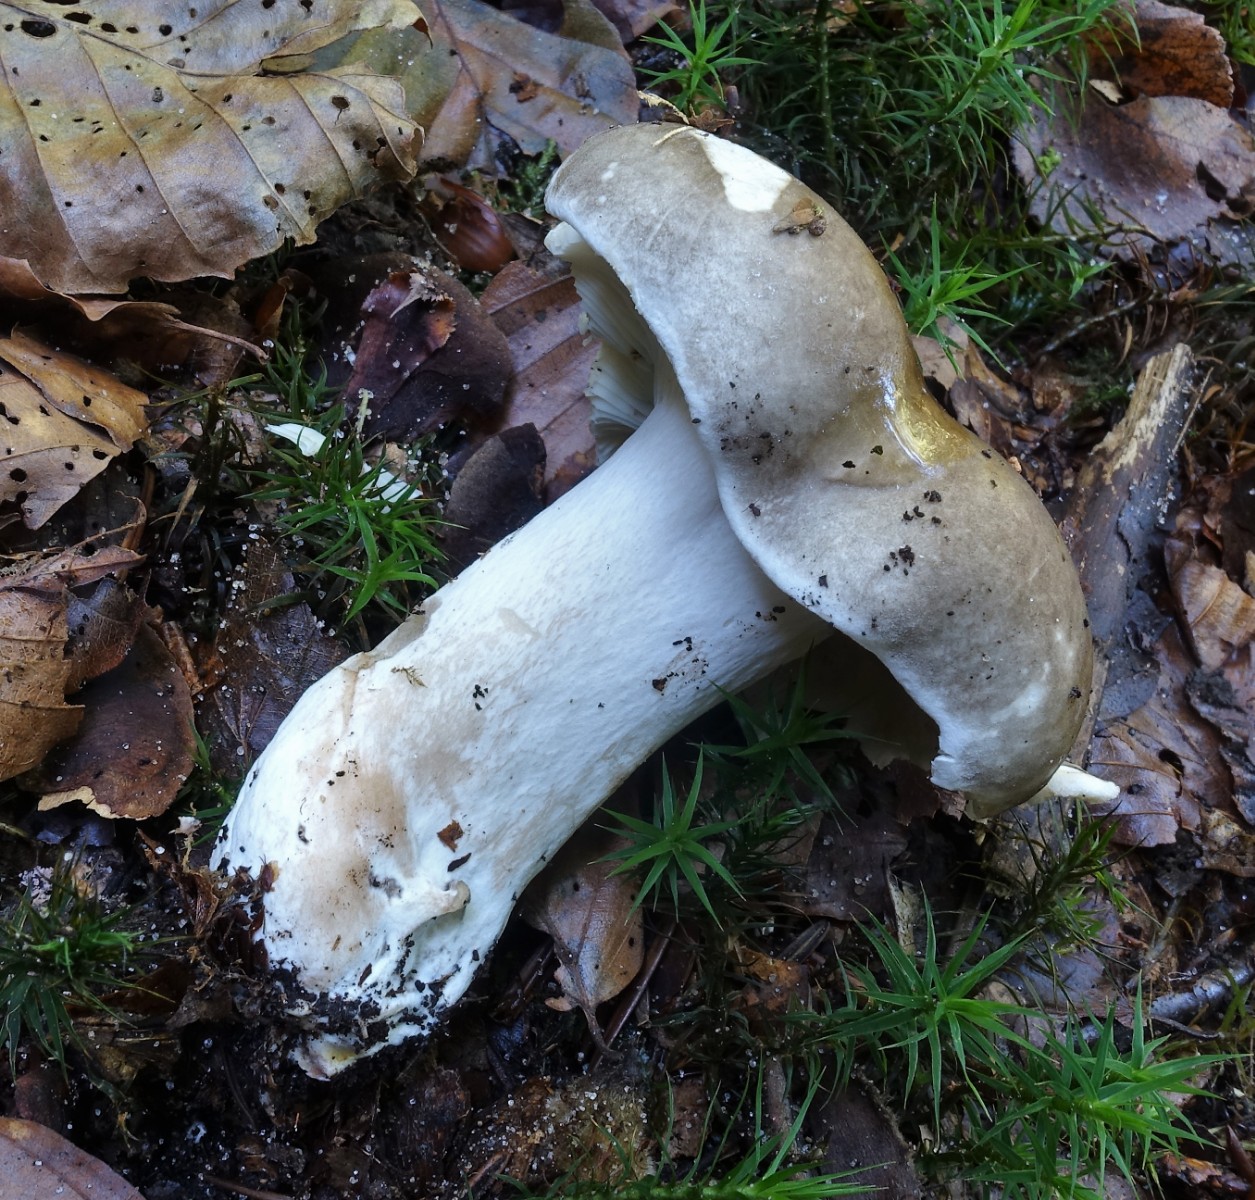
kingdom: Fungi
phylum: Basidiomycota
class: Agaricomycetes
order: Russulales
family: Russulaceae
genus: Russula
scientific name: Russula densifolia
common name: tætbladet skørhat
